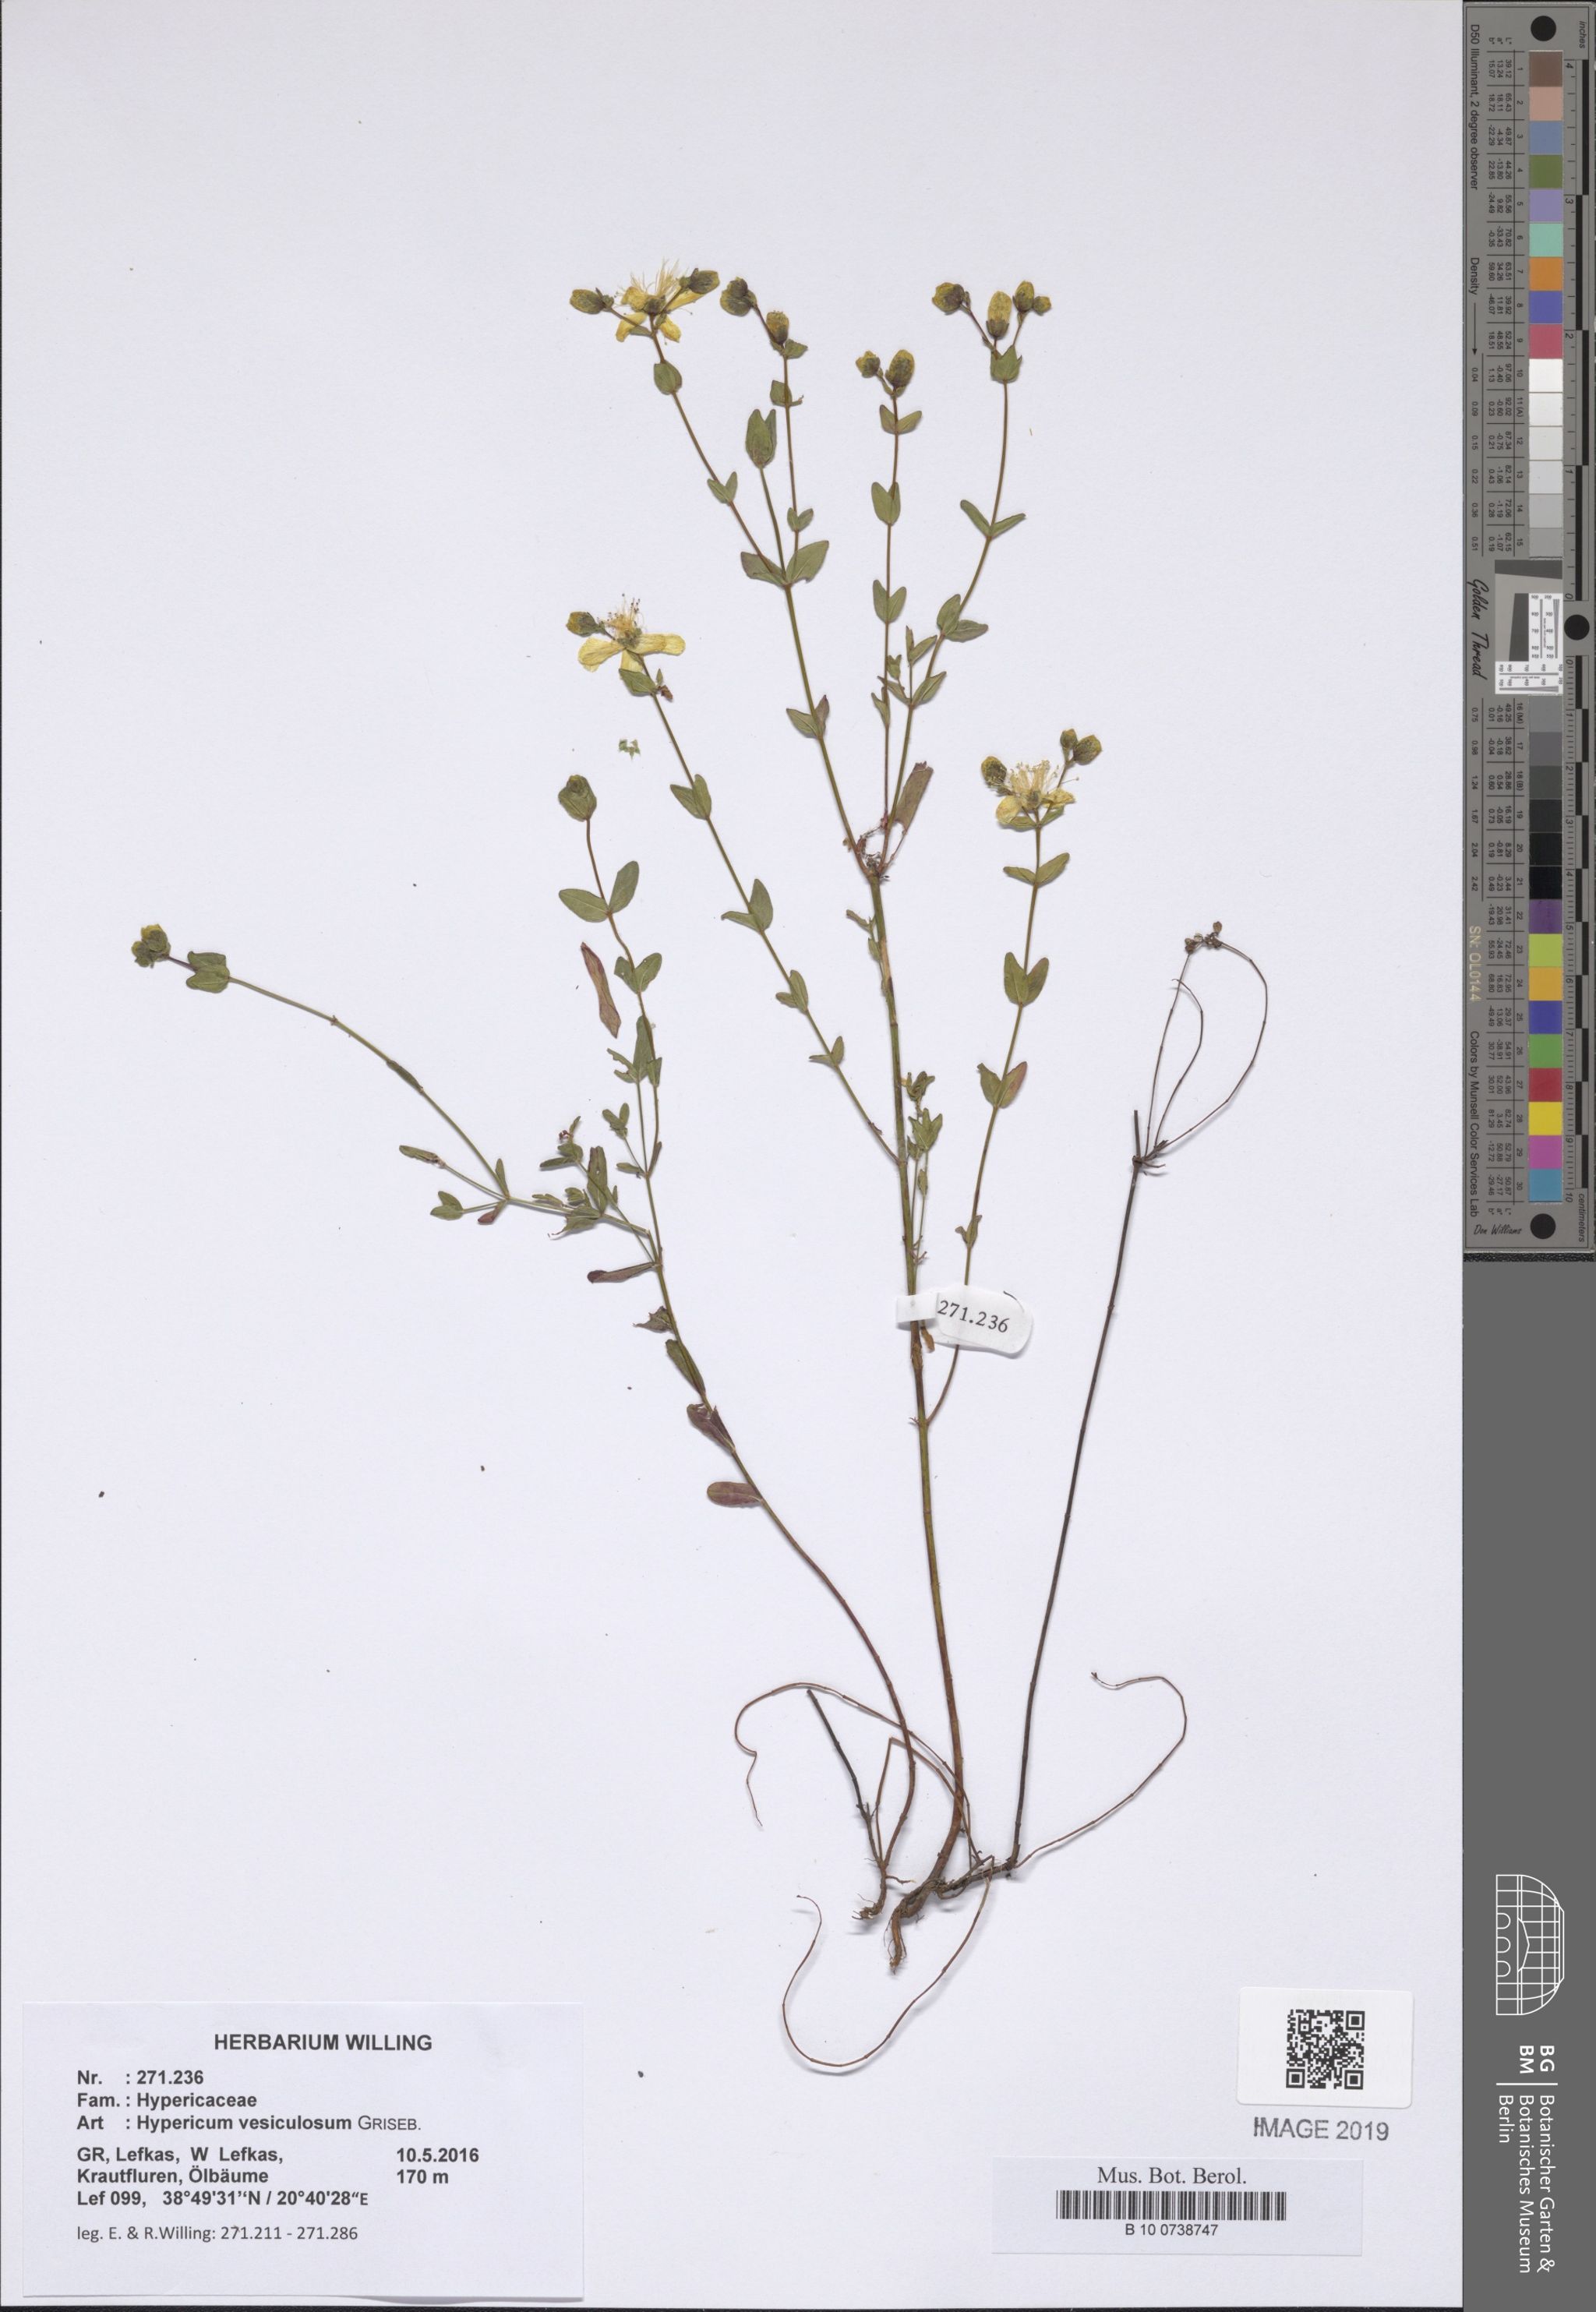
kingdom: Plantae
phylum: Tracheophyta
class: Magnoliopsida
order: Malpighiales
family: Hypericaceae
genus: Hypericum
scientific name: Hypericum vesiculosum
